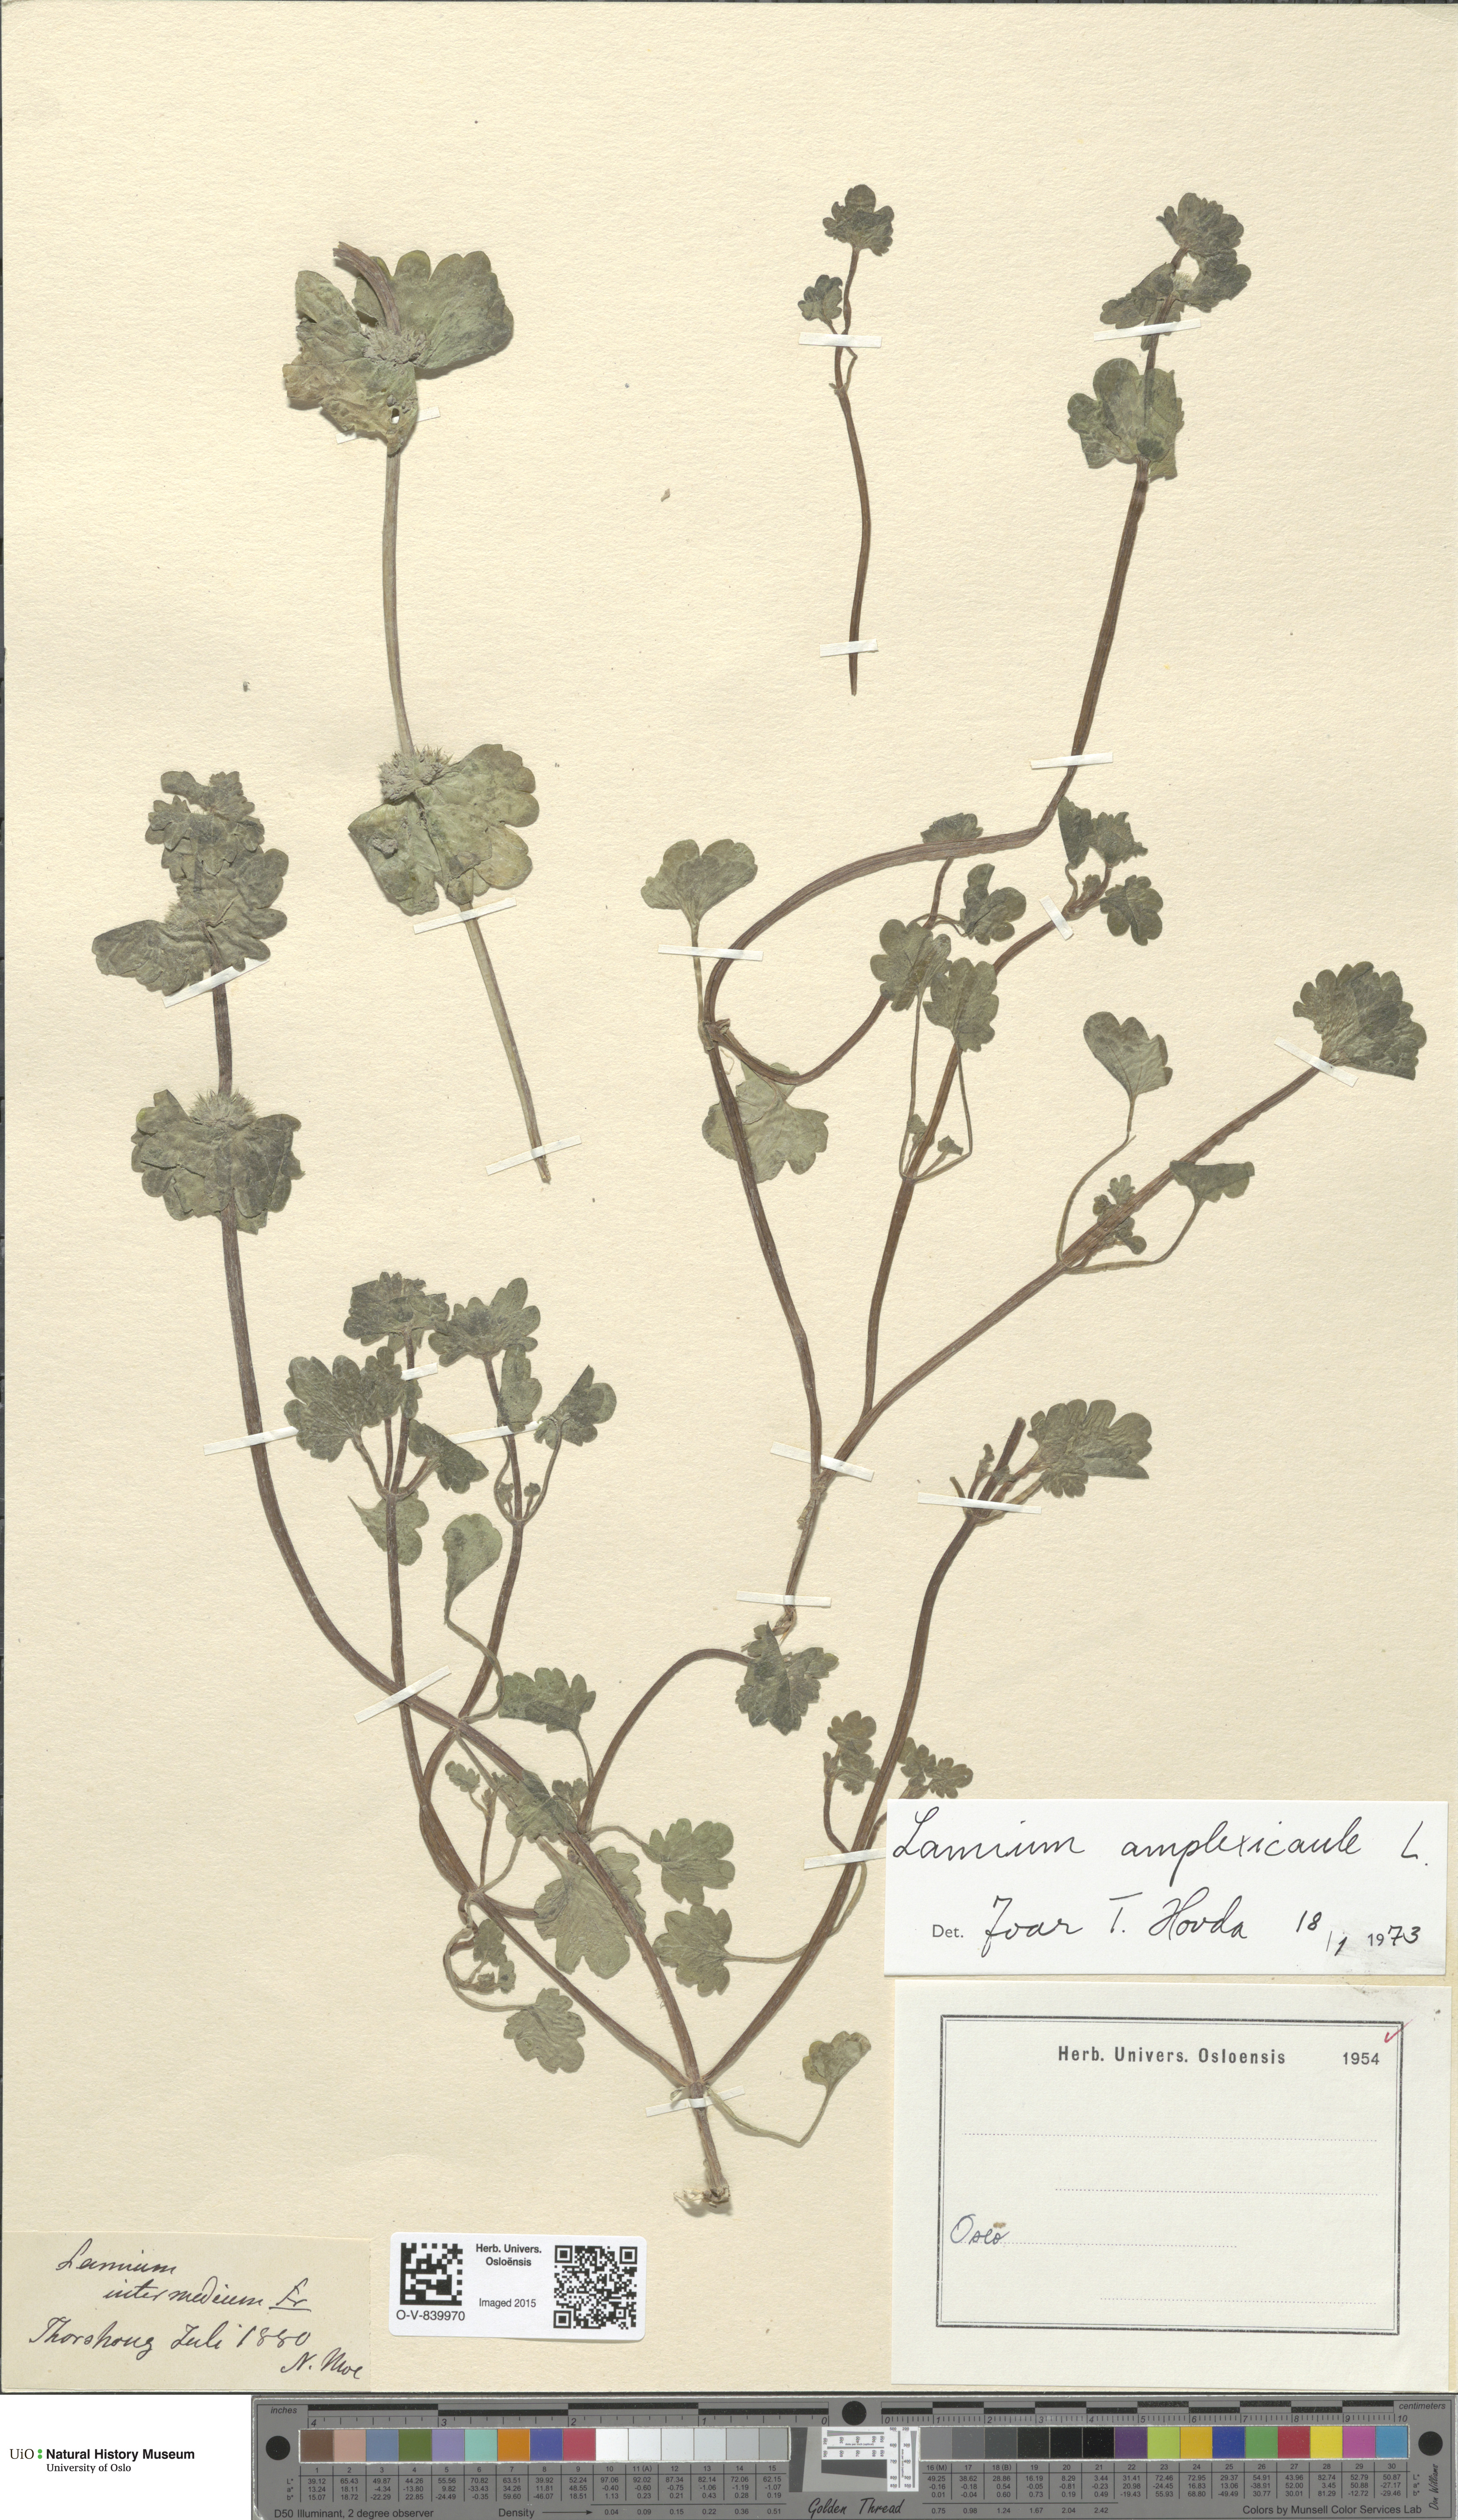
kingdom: Plantae
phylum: Tracheophyta
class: Magnoliopsida
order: Lamiales
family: Lamiaceae
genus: Lamium
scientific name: Lamium amplexicaule
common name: Henbit dead-nettle
